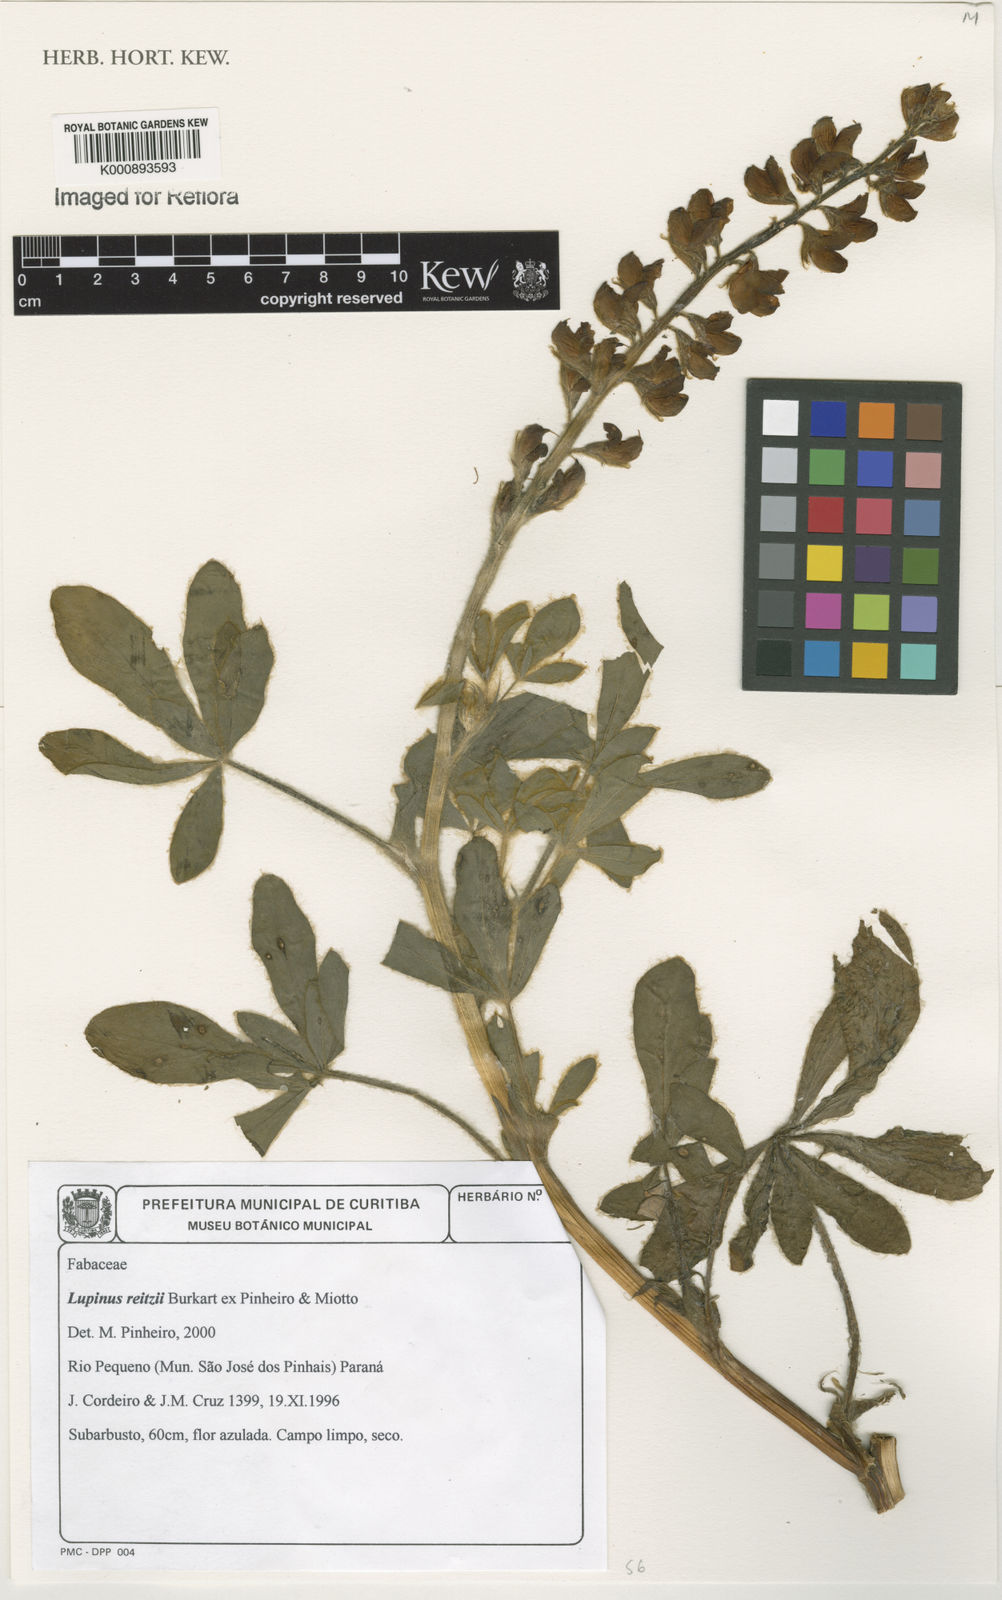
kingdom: Plantae
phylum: Tracheophyta
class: Magnoliopsida
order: Fabales
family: Fabaceae
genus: Lupinus
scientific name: Lupinus reitzii
